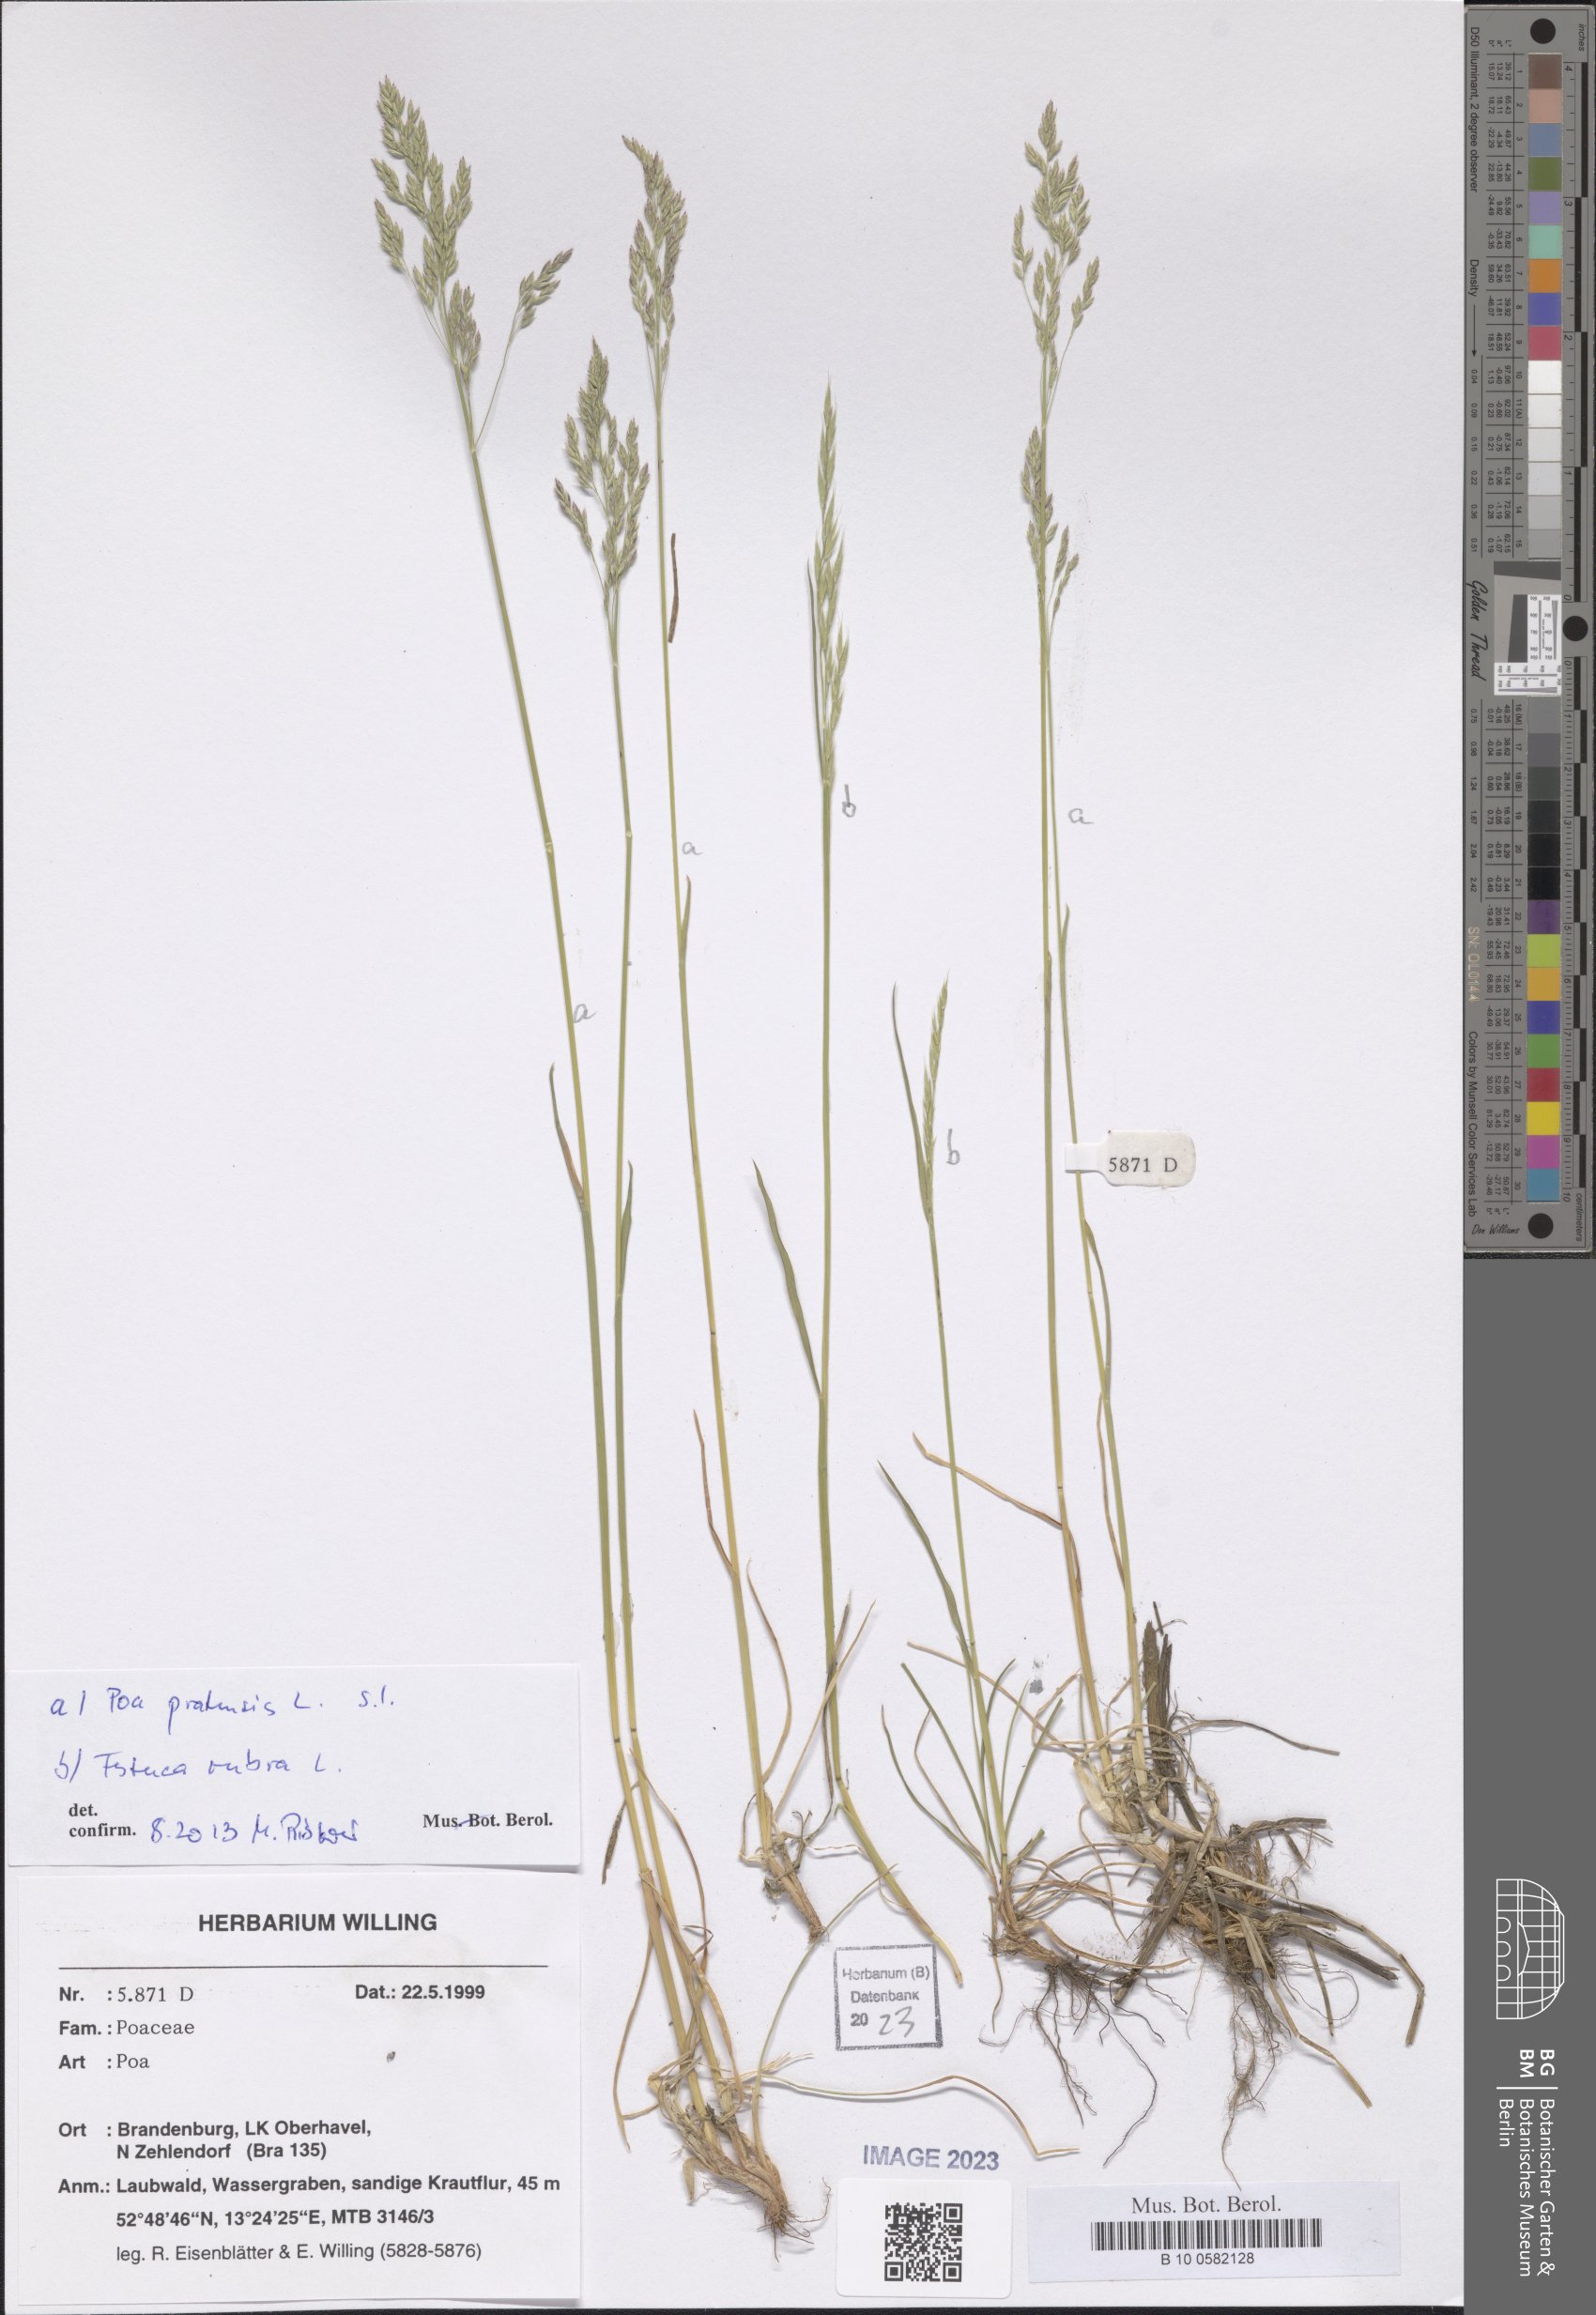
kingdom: Plantae
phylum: Tracheophyta
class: Liliopsida
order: Poales
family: Poaceae
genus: Poa
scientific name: Poa pratensis
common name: Kentucky bluegrass
